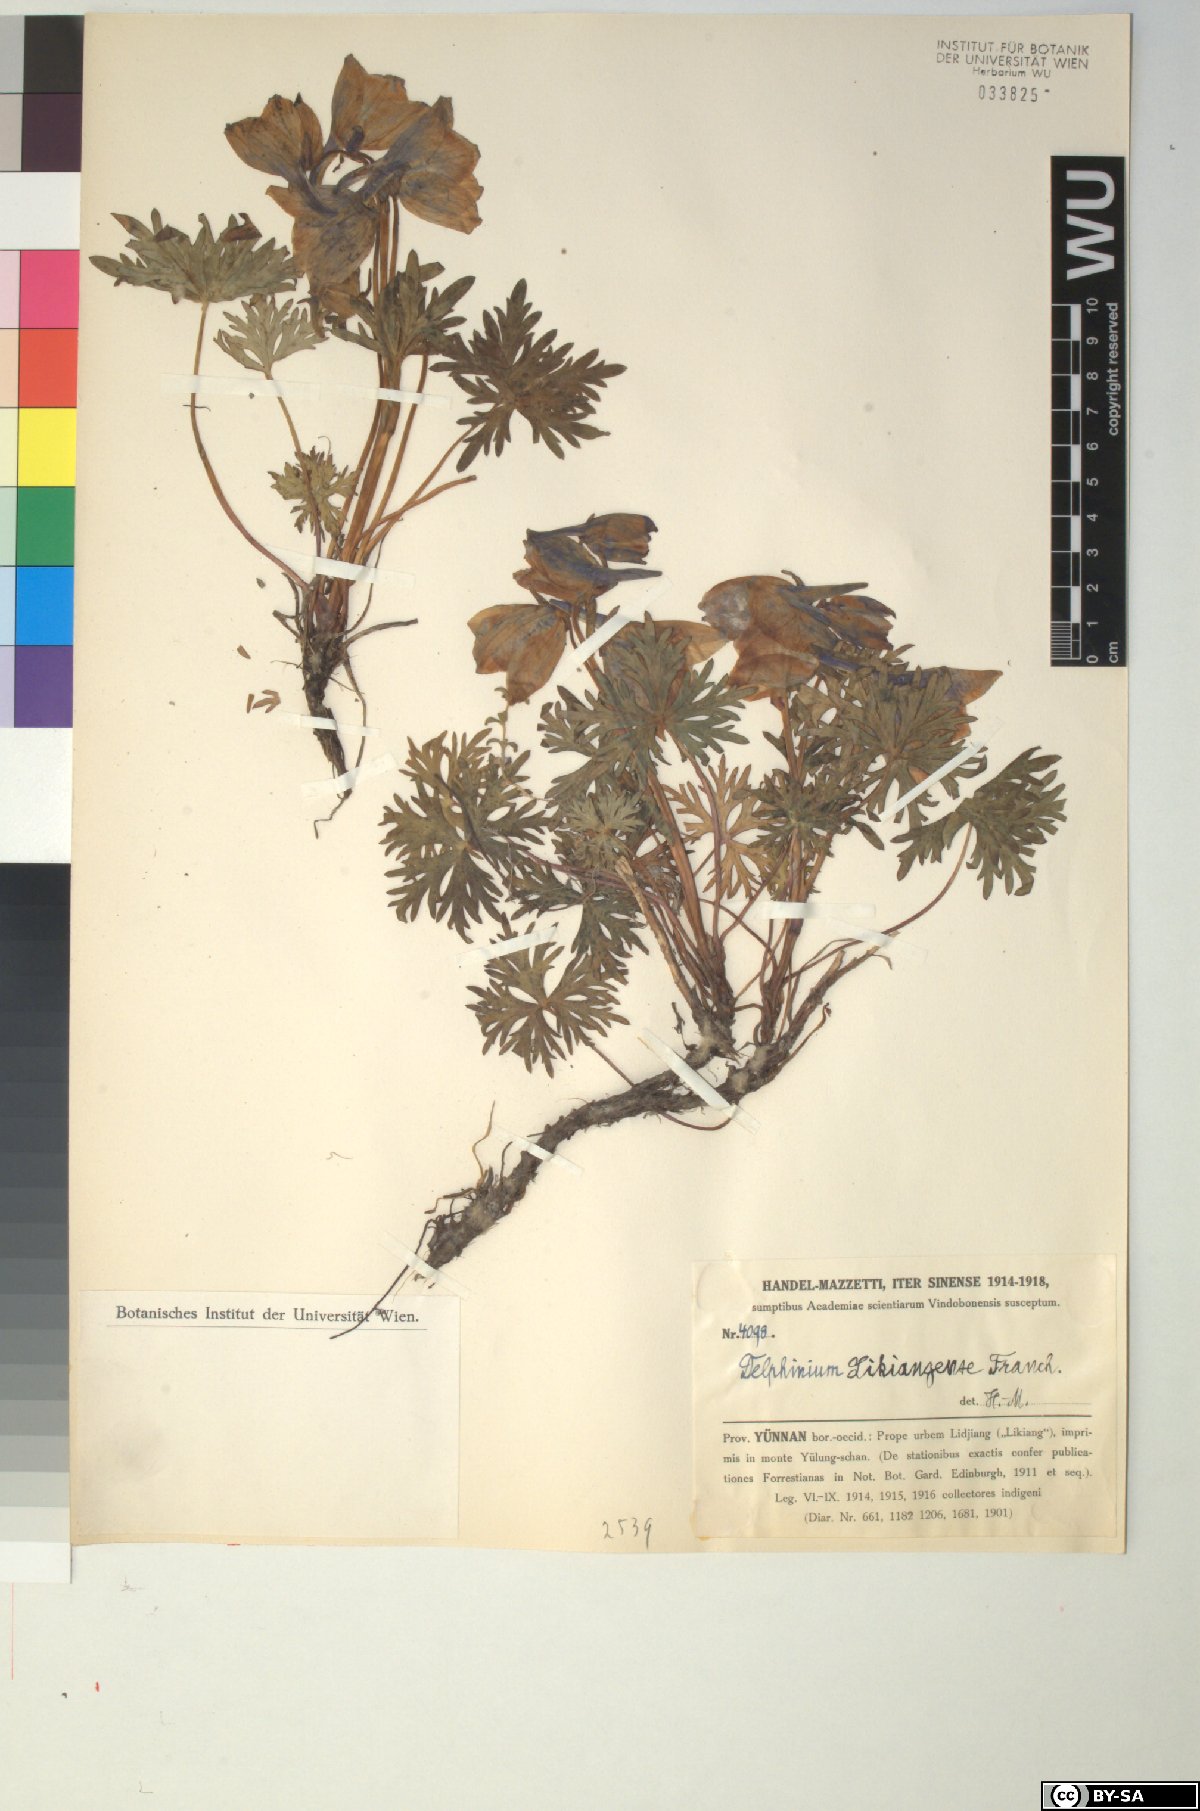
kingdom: Plantae
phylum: Tracheophyta
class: Magnoliopsida
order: Ranunculales
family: Ranunculaceae
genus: Delphinium
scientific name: Delphinium likiangense
